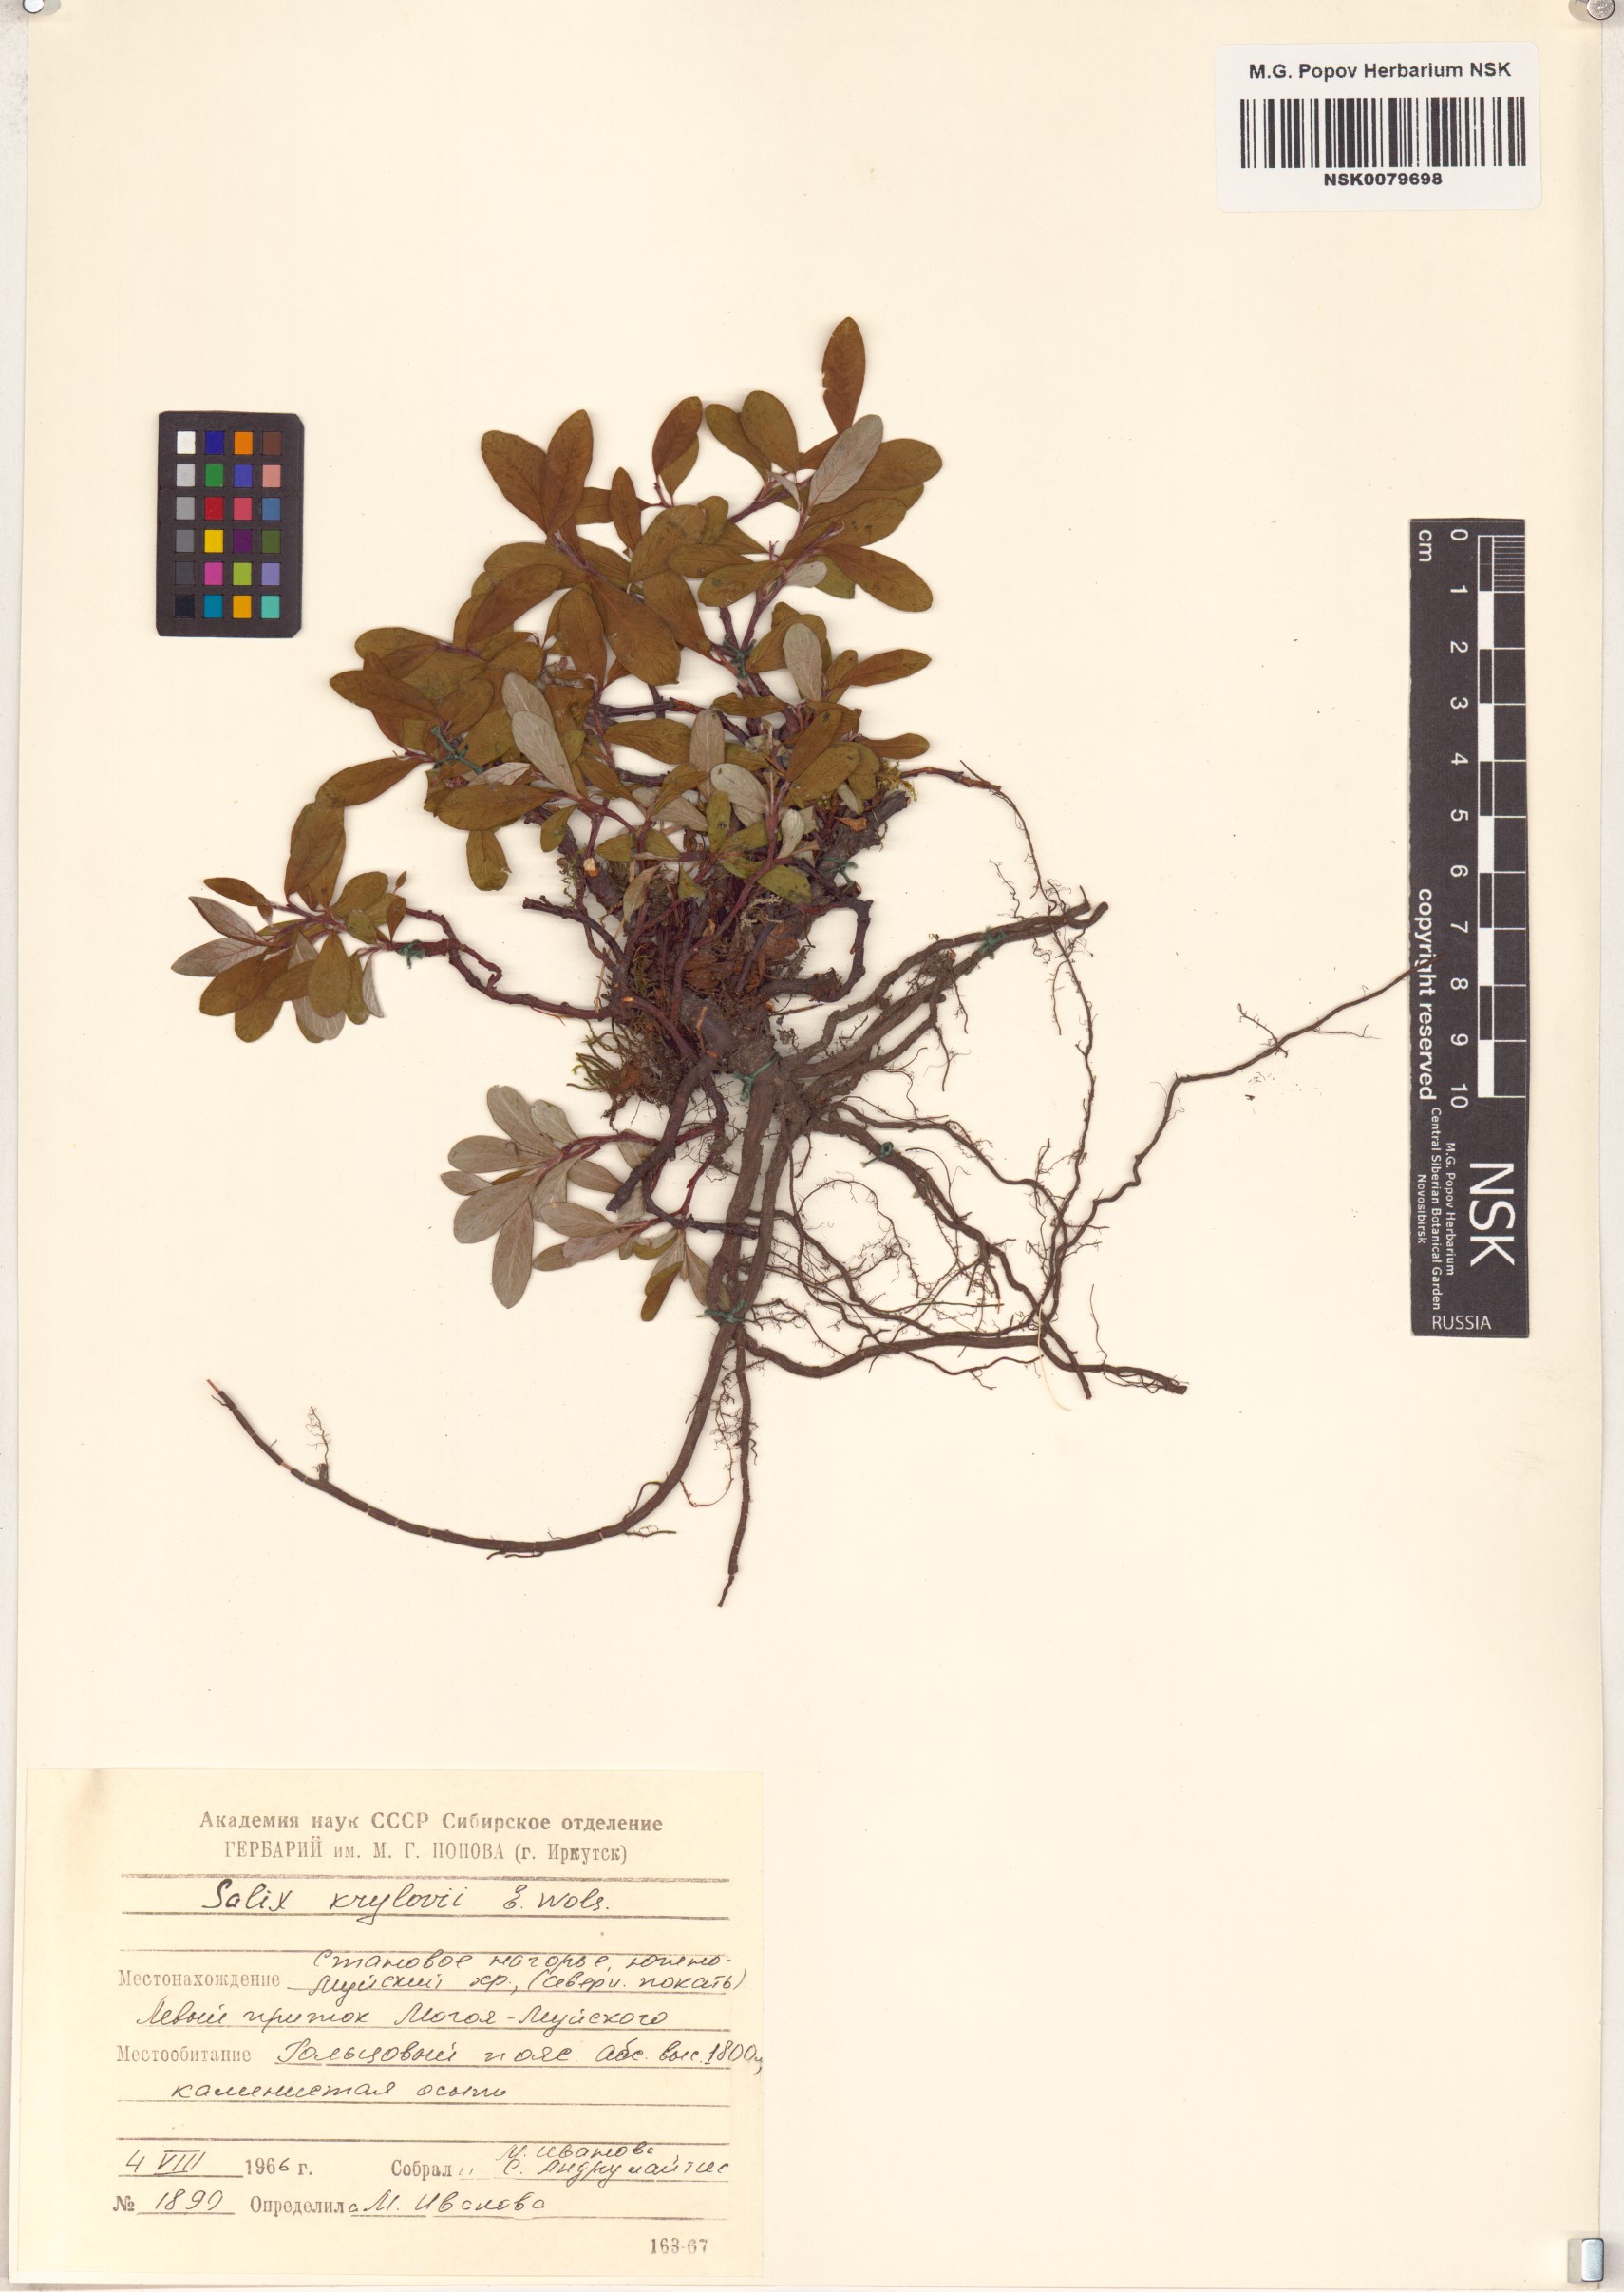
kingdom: Plantae
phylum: Tracheophyta
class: Magnoliopsida
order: Malpighiales
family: Salicaceae
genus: Salix
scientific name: Salix krylovii
